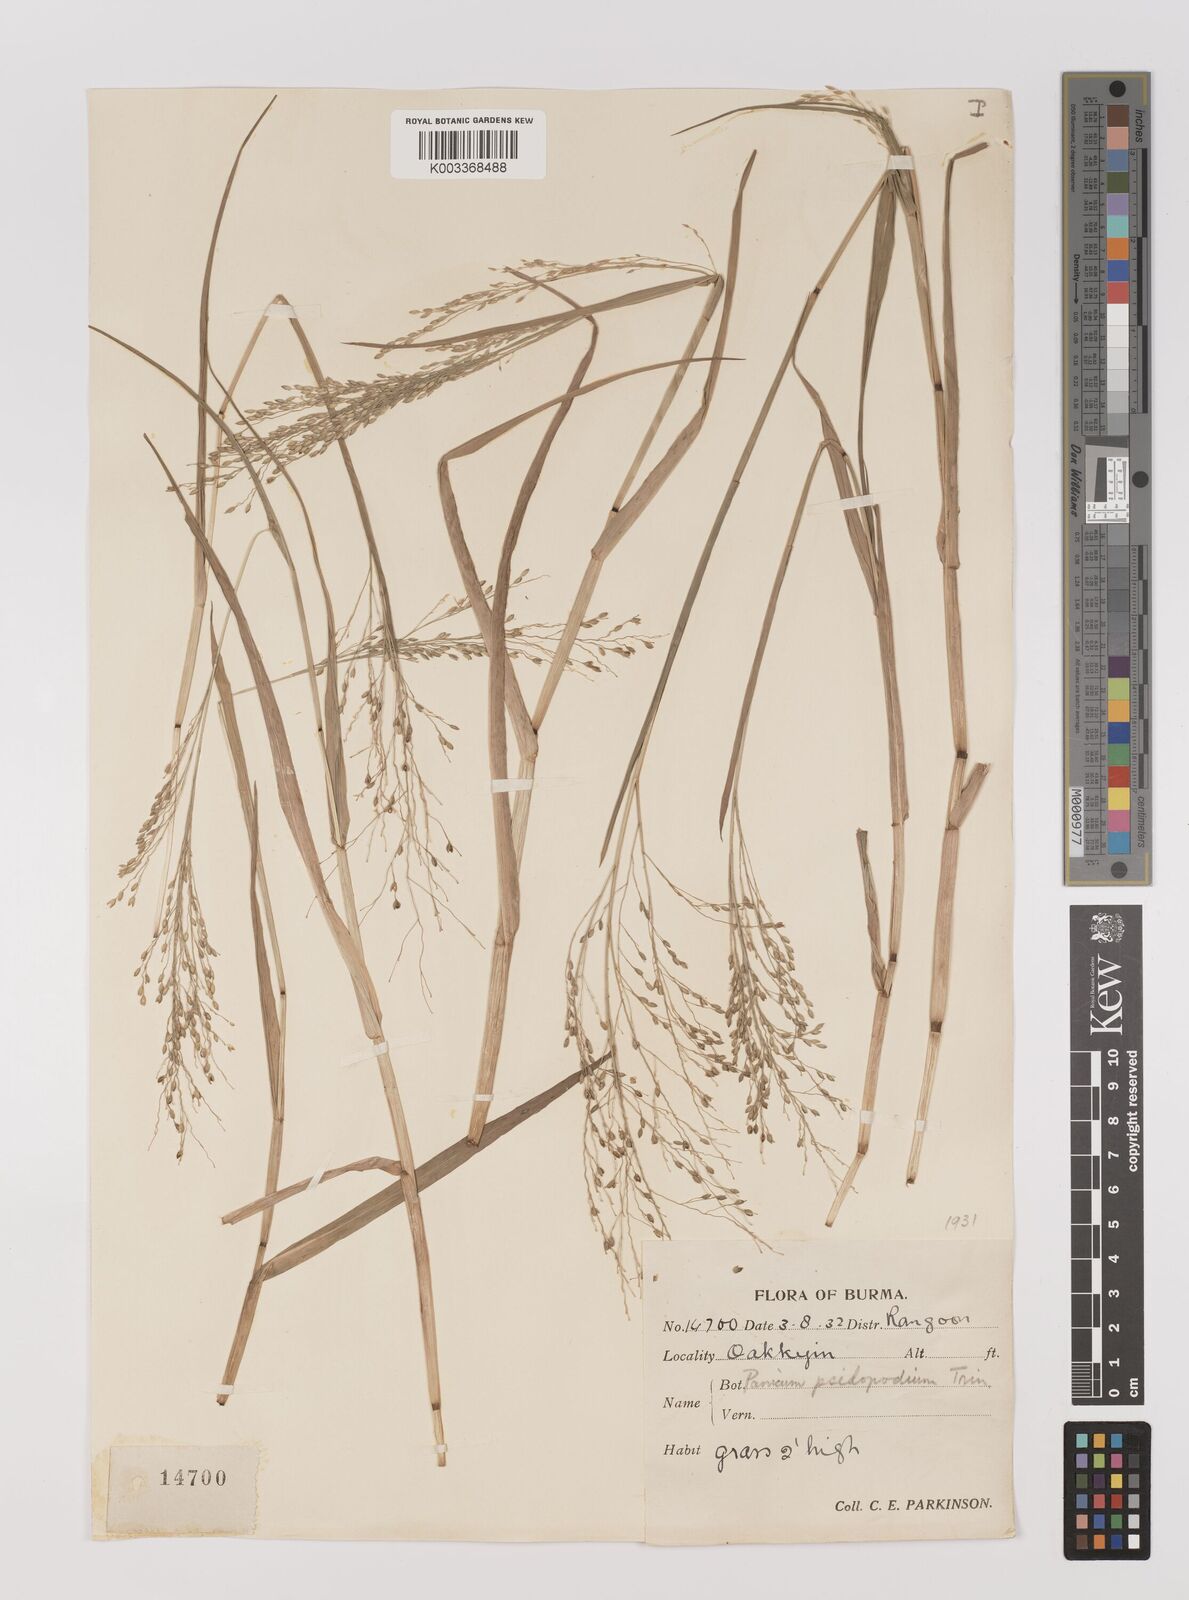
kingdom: Plantae
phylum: Tracheophyta
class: Liliopsida
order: Poales
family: Poaceae
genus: Panicum
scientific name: Panicum sumatrense
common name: Little millet
